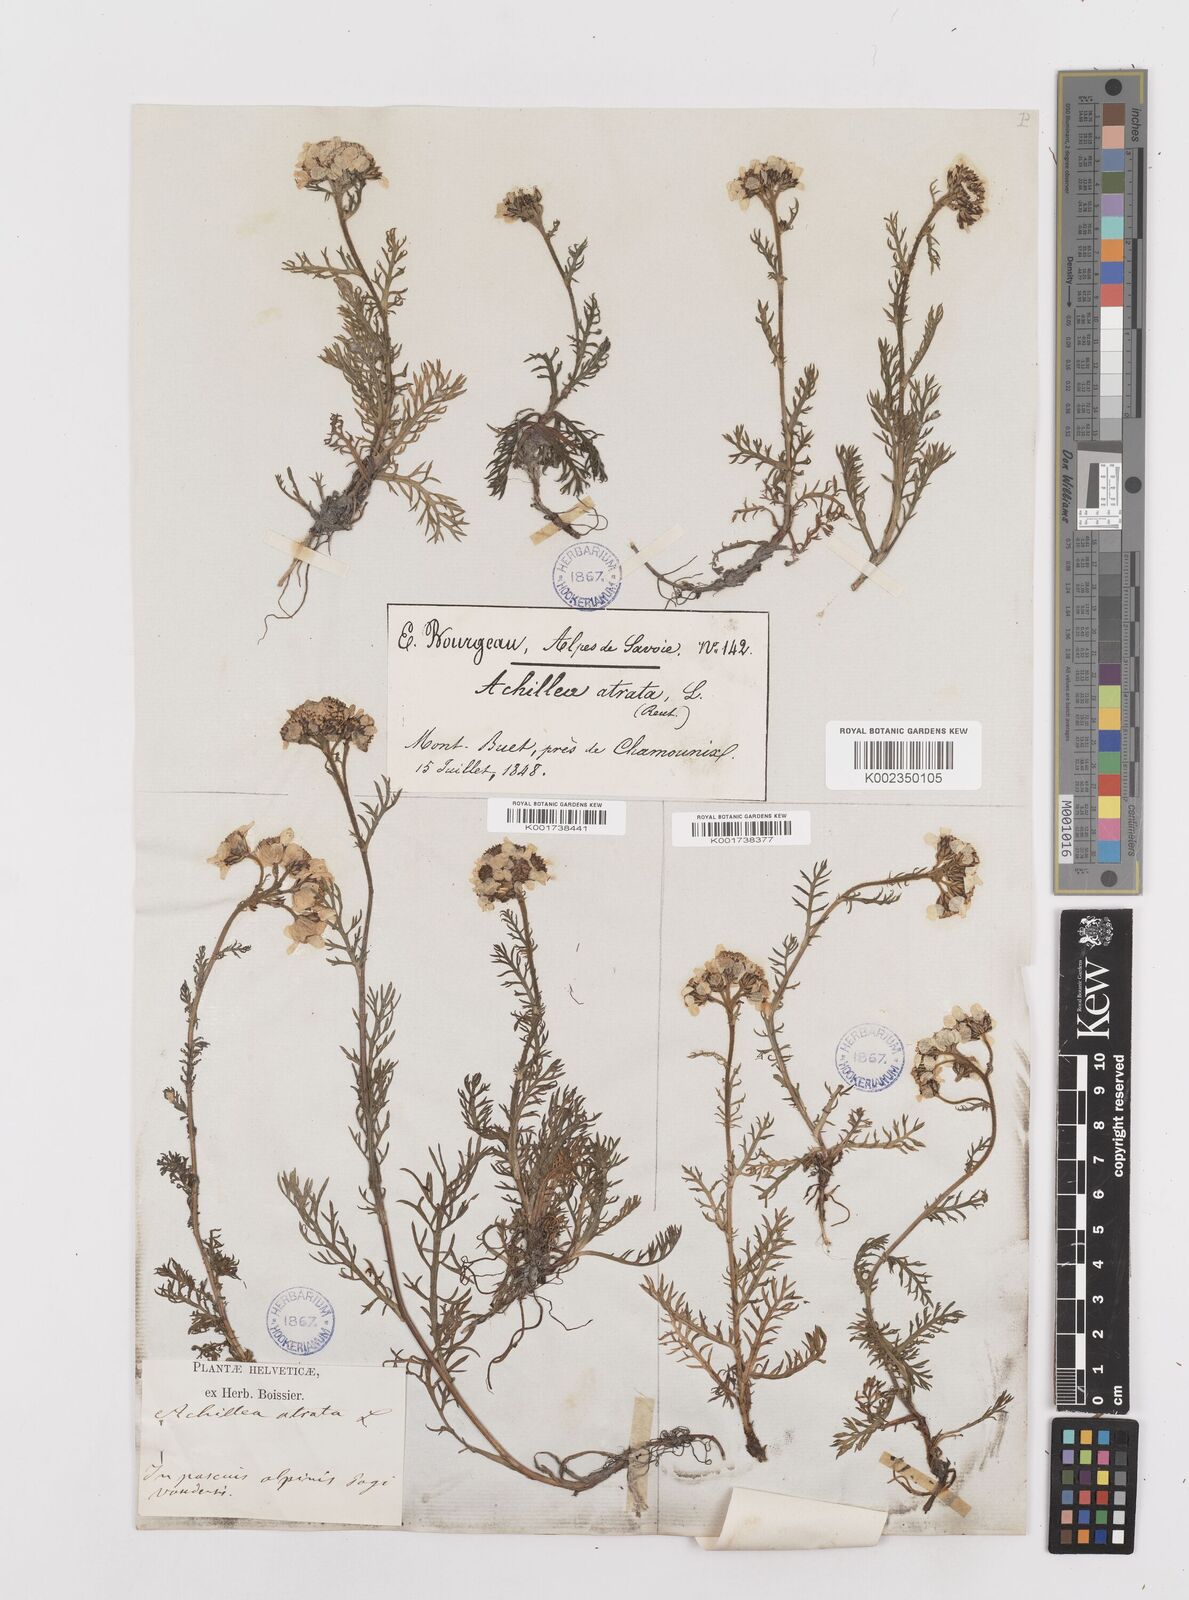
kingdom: Plantae
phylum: Tracheophyta
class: Magnoliopsida
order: Asterales
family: Asteraceae
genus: Achillea
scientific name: Achillea atrata
